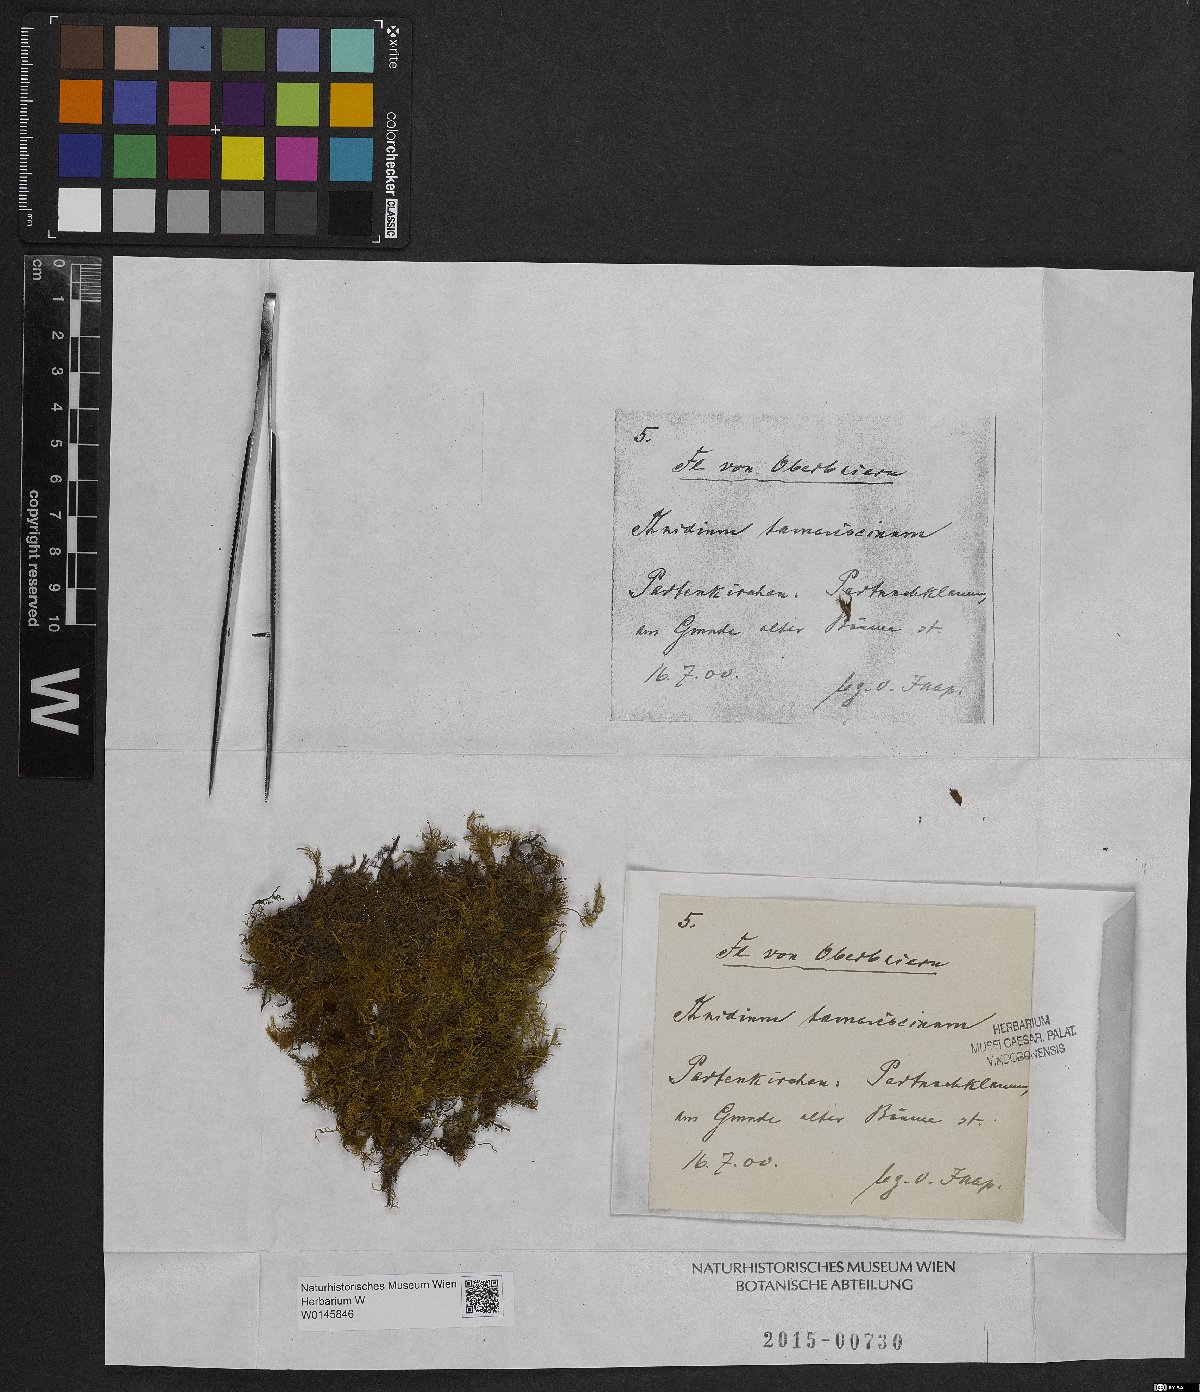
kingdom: Plantae
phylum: Bryophyta
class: Bryopsida
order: Hypnales
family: Thuidiaceae
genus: Thuidium
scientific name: Thuidium tamariscinum
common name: Common tamarisk-moss
